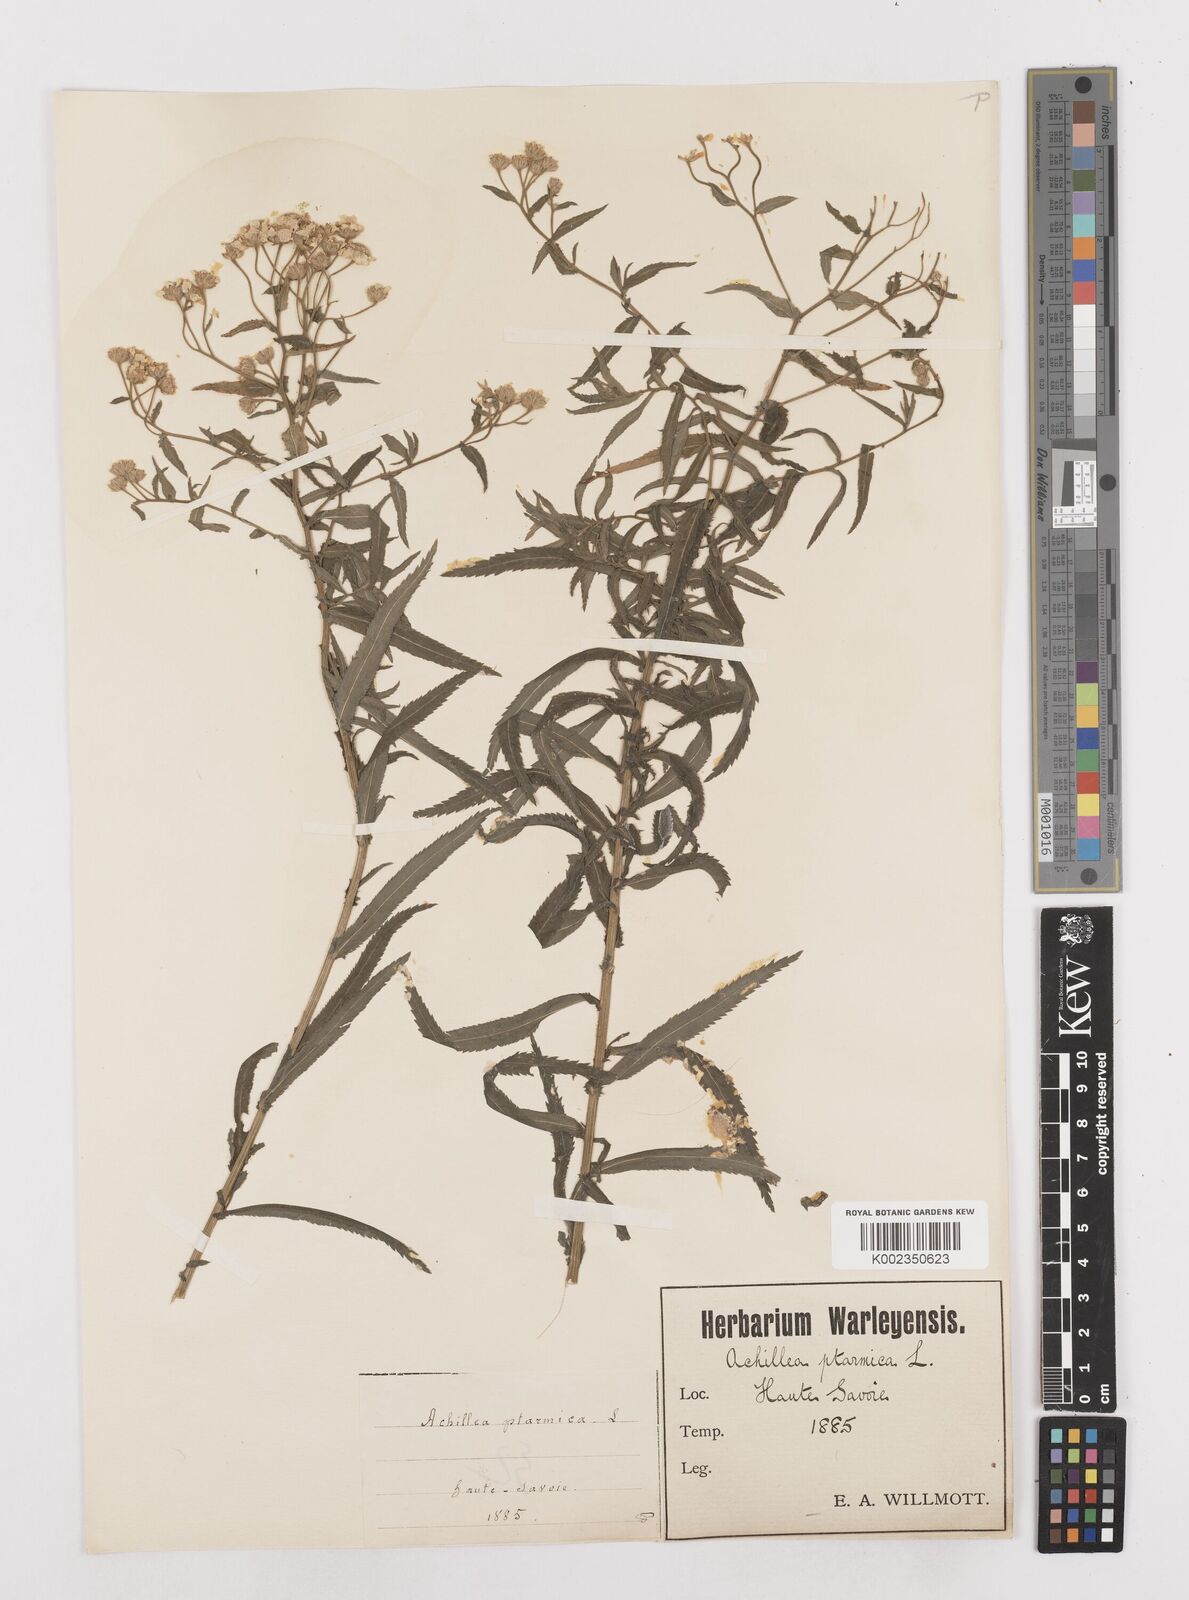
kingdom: Plantae
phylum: Tracheophyta
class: Magnoliopsida
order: Asterales
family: Asteraceae
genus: Achillea
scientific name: Achillea ptarmica
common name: Sneezeweed
